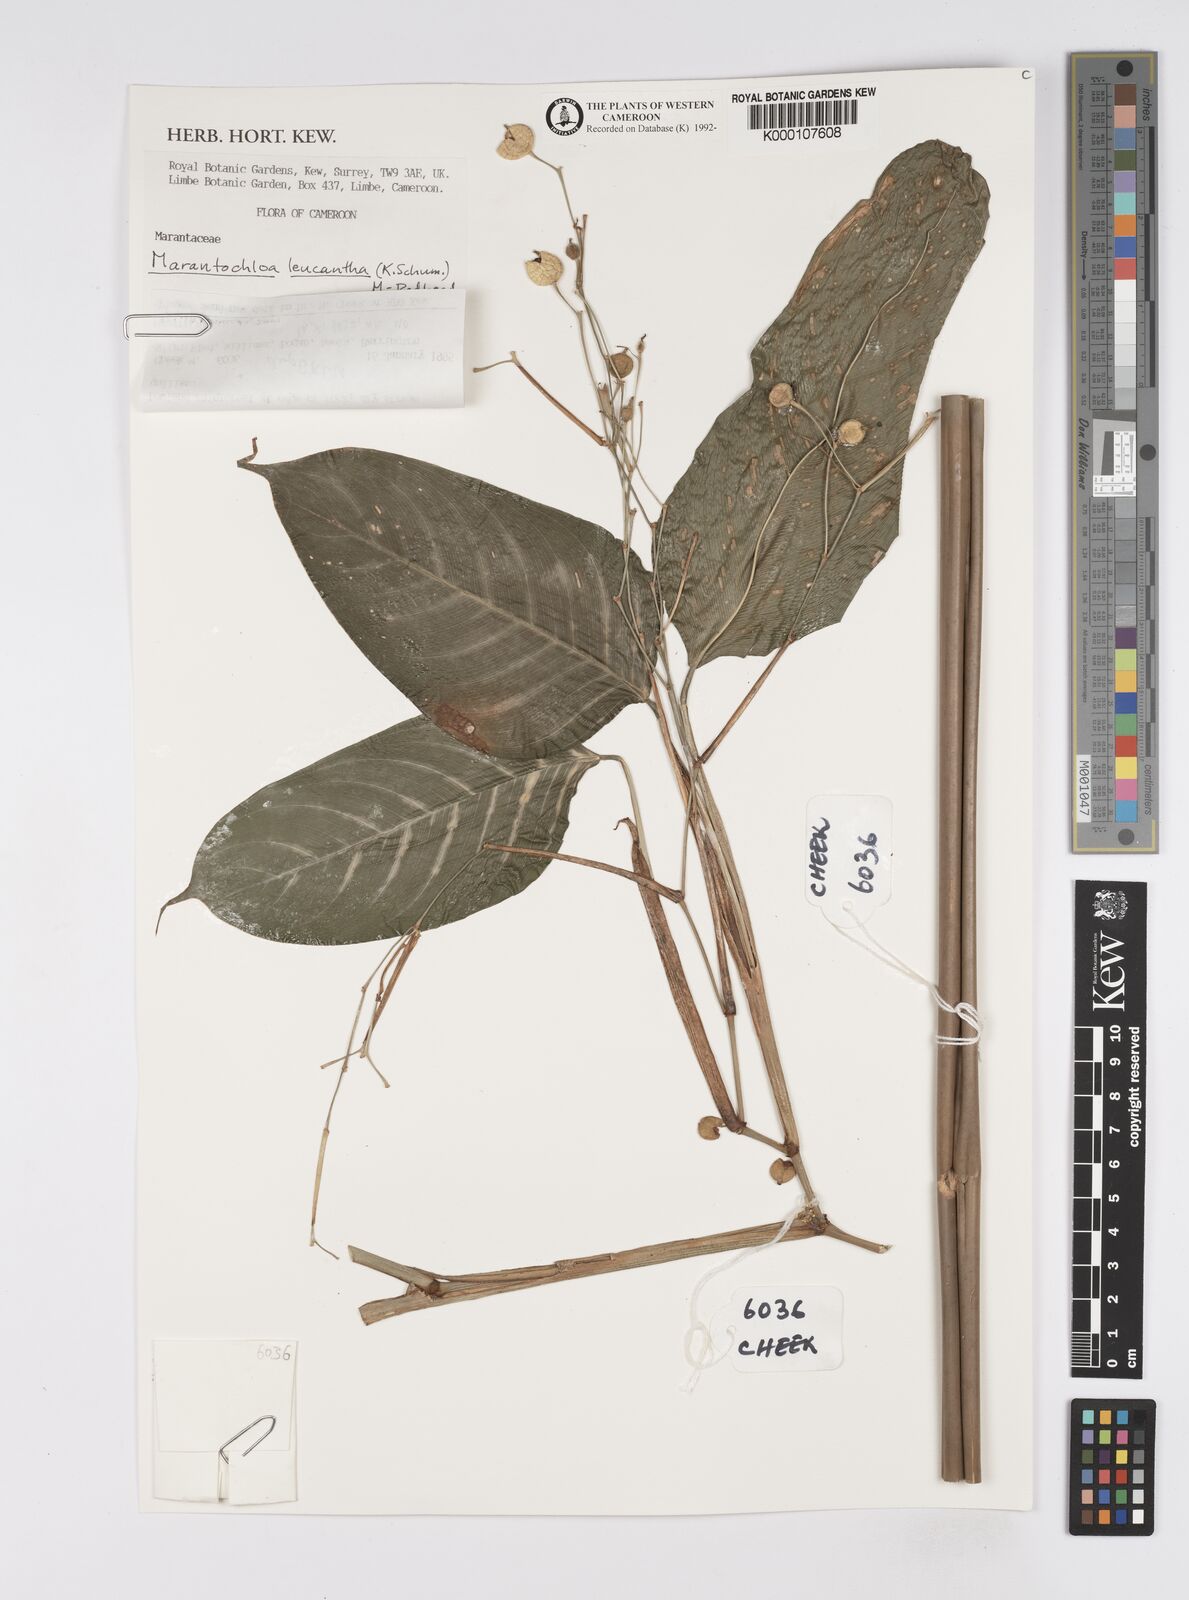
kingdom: Plantae
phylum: Tracheophyta
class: Liliopsida
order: Zingiberales
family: Marantaceae
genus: Marantochloa
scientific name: Marantochloa leucantha
